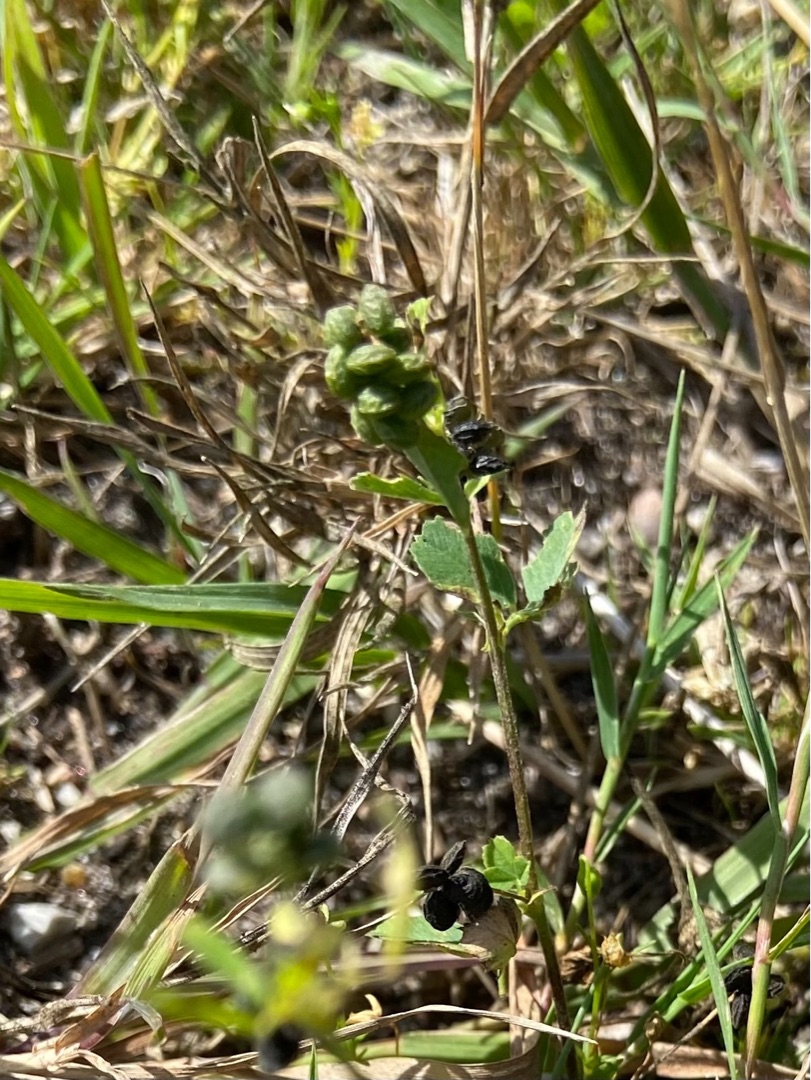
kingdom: Plantae
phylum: Tracheophyta
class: Magnoliopsida
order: Fabales
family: Fabaceae
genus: Medicago
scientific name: Medicago lupulina
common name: Humle-sneglebælg
